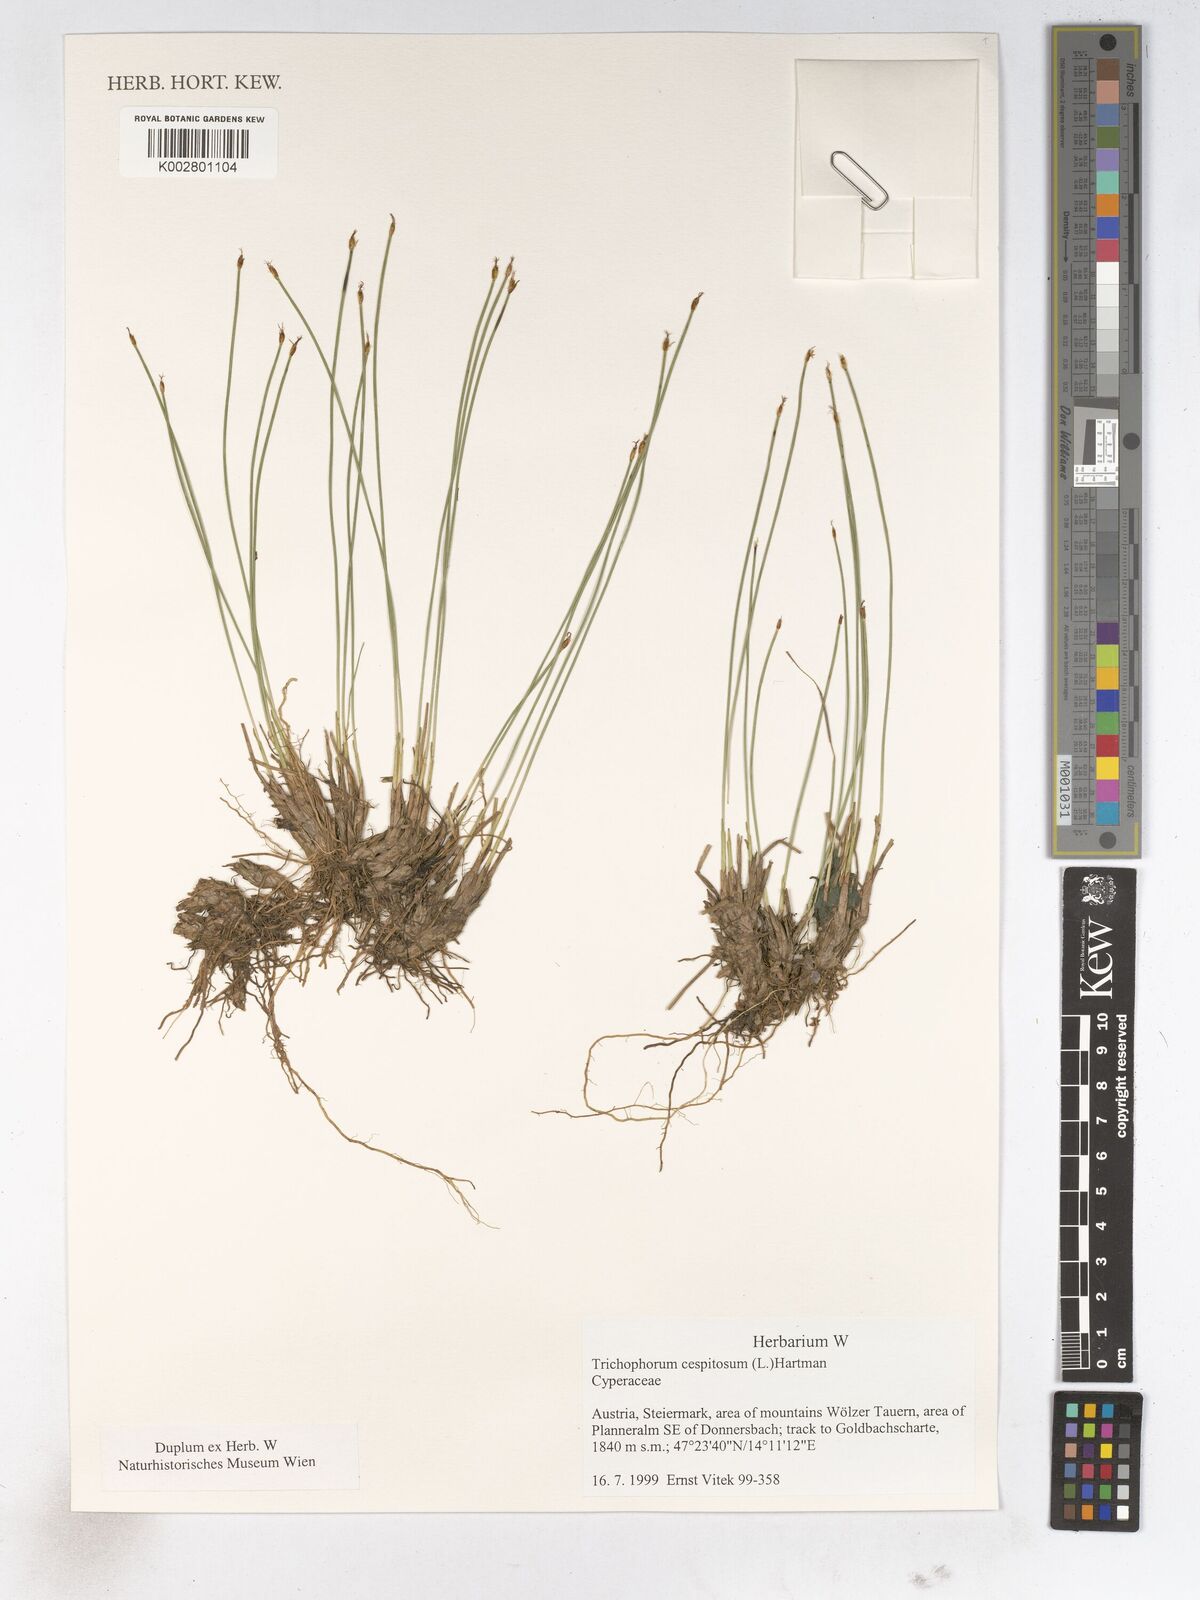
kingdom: Plantae
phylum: Tracheophyta
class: Liliopsida
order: Poales
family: Cyperaceae
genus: Trichophorum
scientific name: Trichophorum cespitosum
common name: Cespitose bulrush
